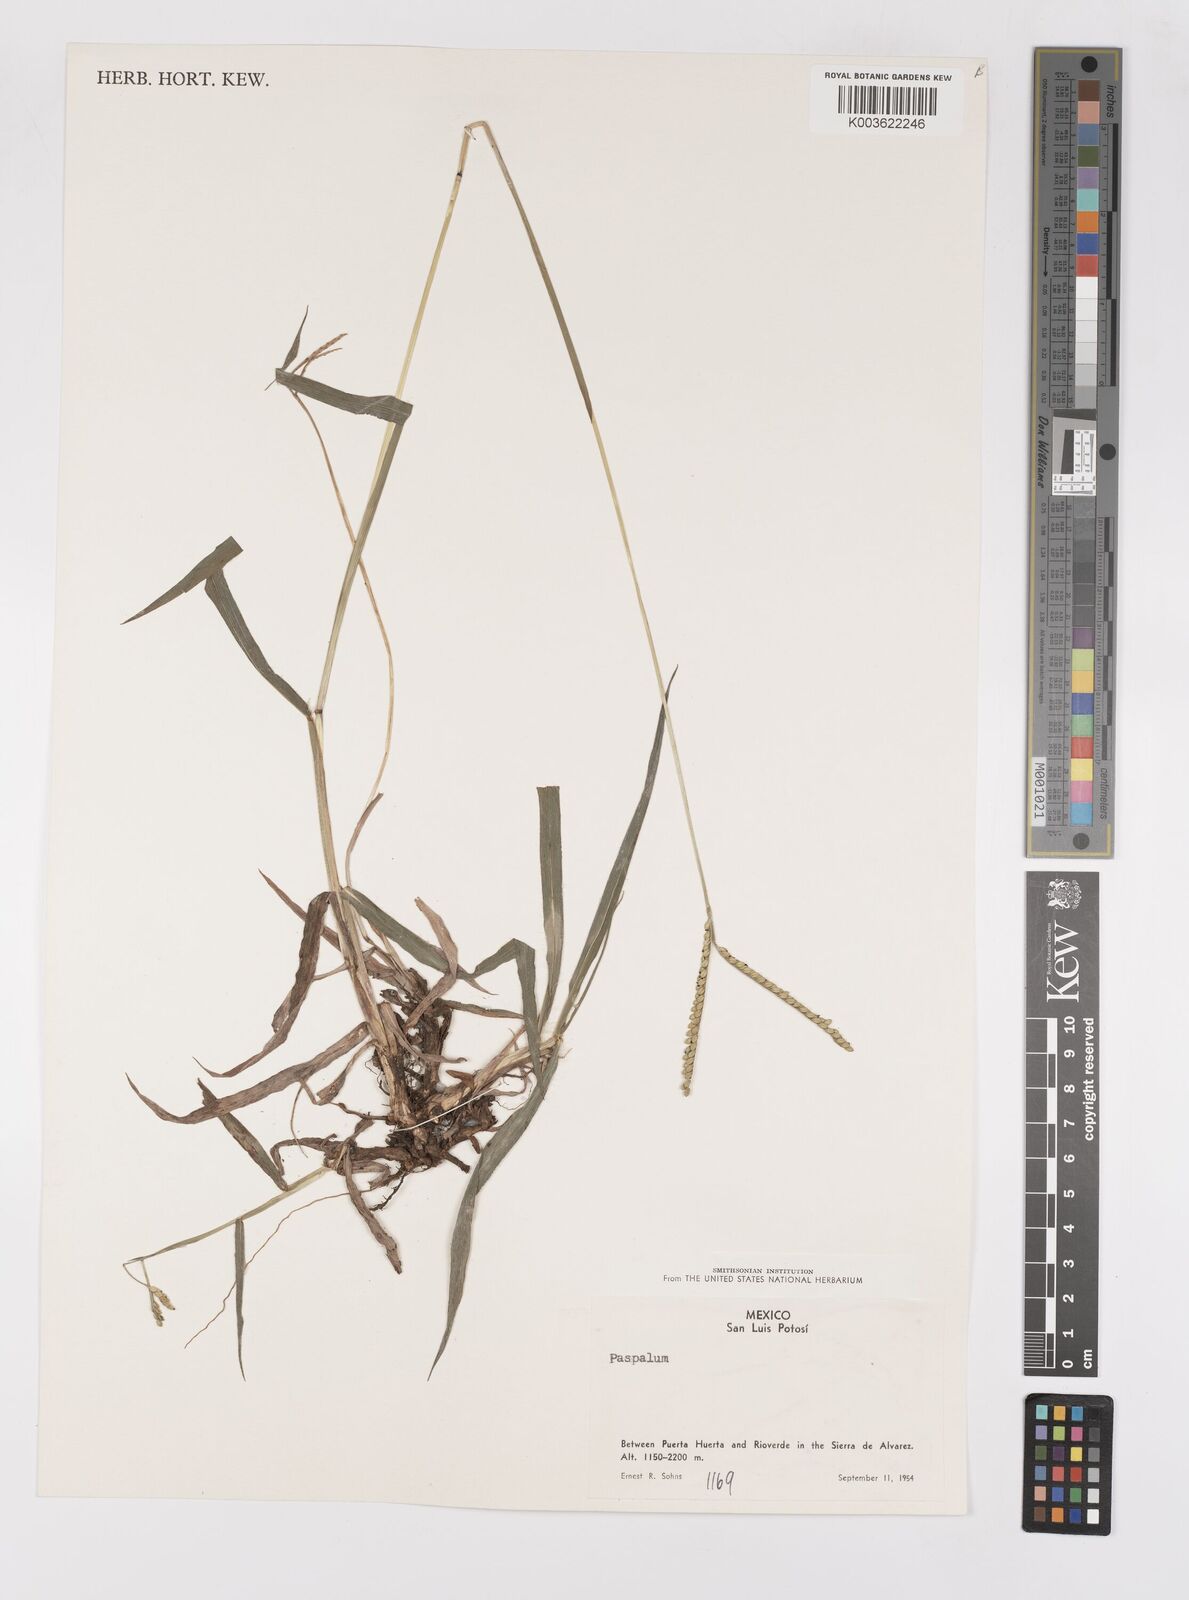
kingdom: Plantae
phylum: Tracheophyta
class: Liliopsida
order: Poales
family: Poaceae
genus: Paspalum
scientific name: Paspalum
